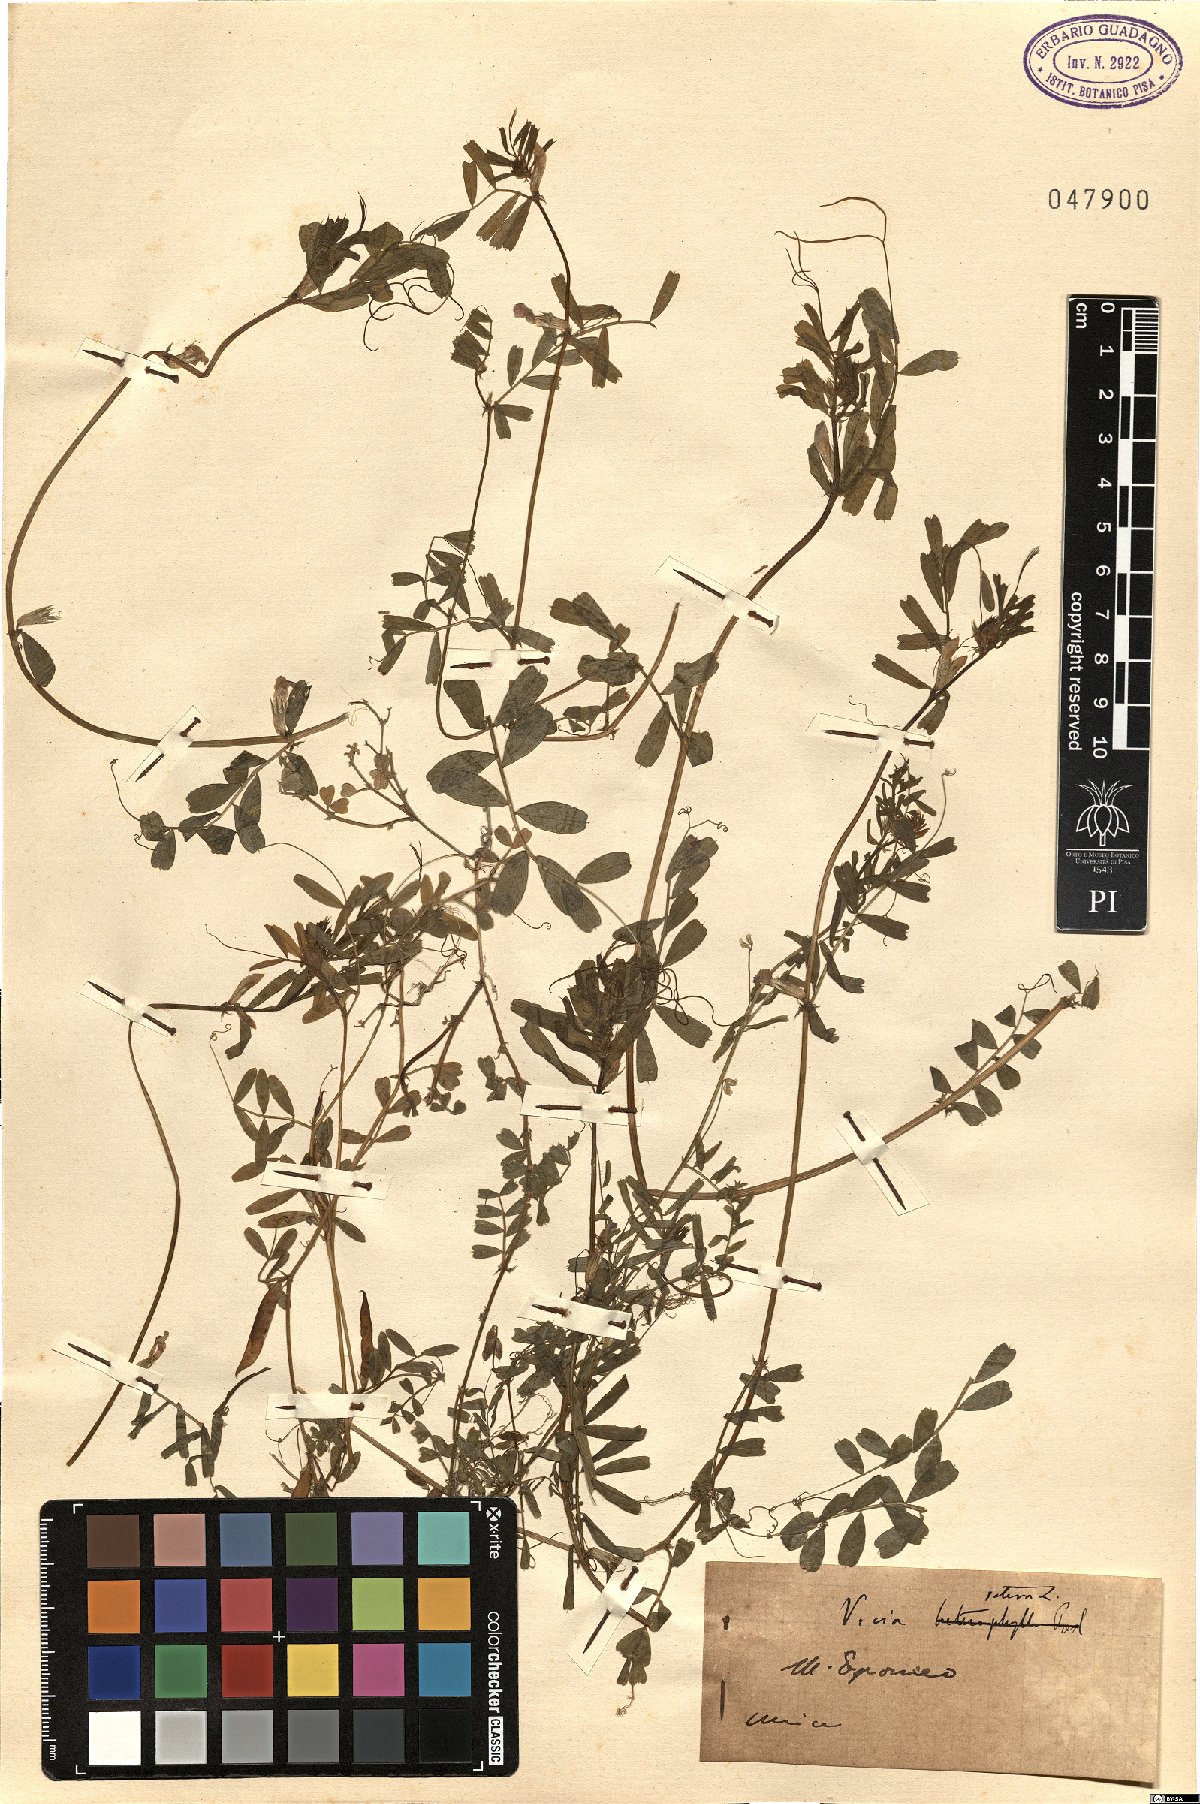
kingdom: Plantae
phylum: Tracheophyta
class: Magnoliopsida
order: Fabales
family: Fabaceae
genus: Vicia
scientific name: Vicia sativa
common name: Garden vetch
